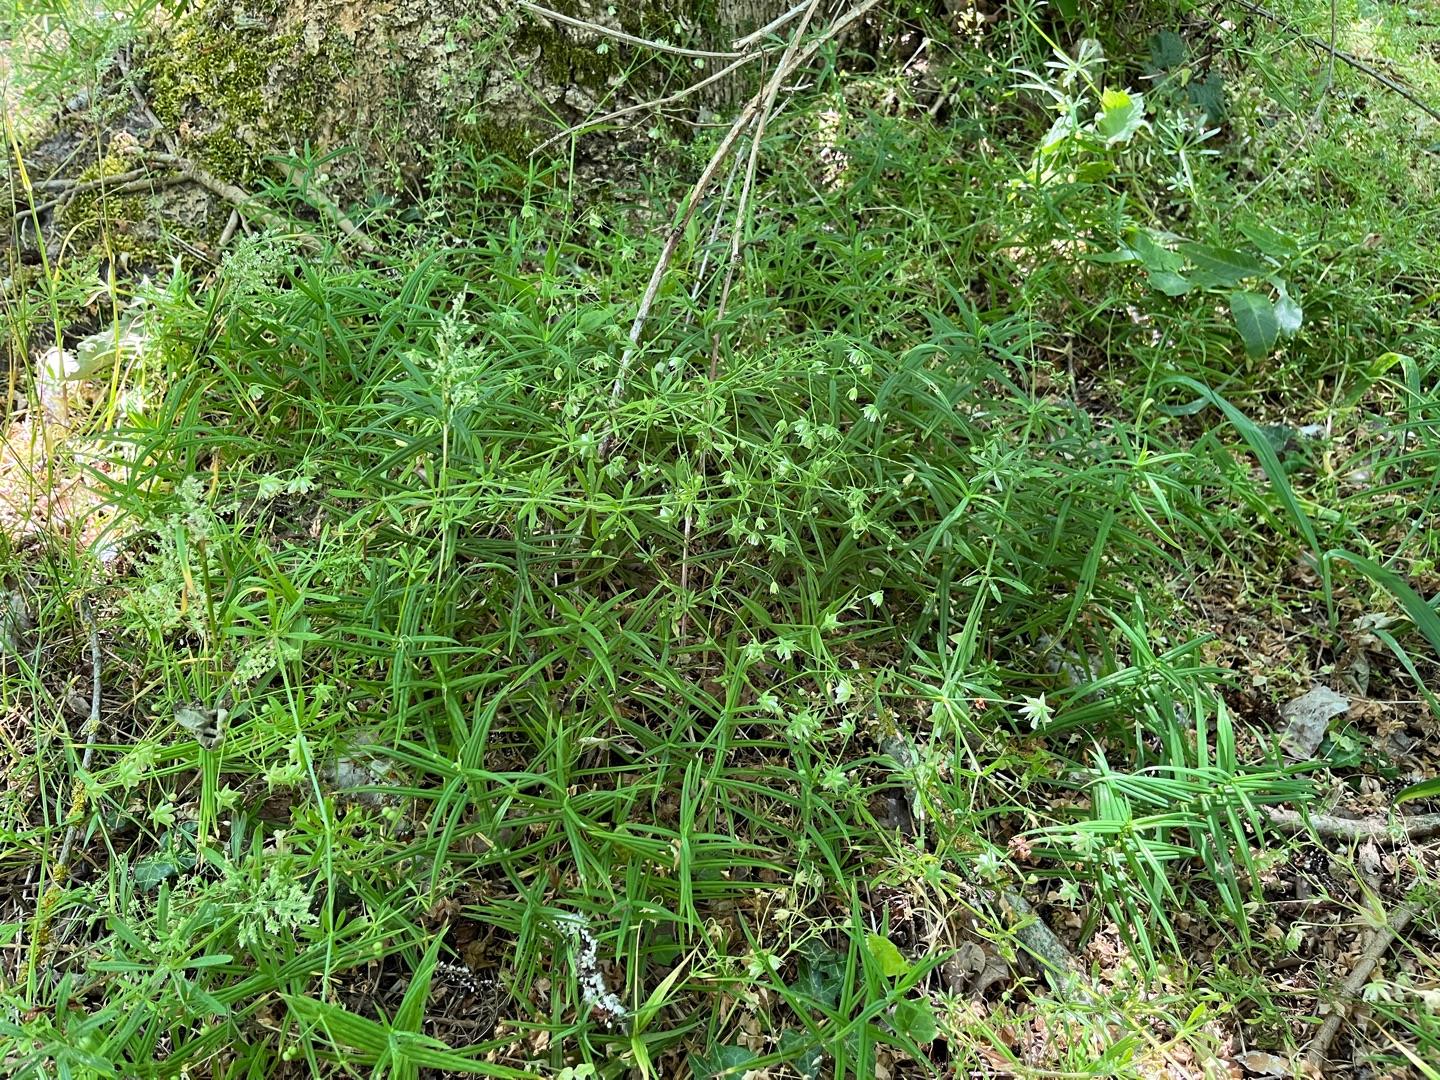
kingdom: Plantae
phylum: Tracheophyta
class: Magnoliopsida
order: Caryophyllales
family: Caryophyllaceae
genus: Rabelera
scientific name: Rabelera holostea
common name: Stor fladstjerne
